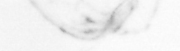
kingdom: Chromista
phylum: Ochrophyta
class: Bacillariophyceae
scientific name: Bacillariophyceae
